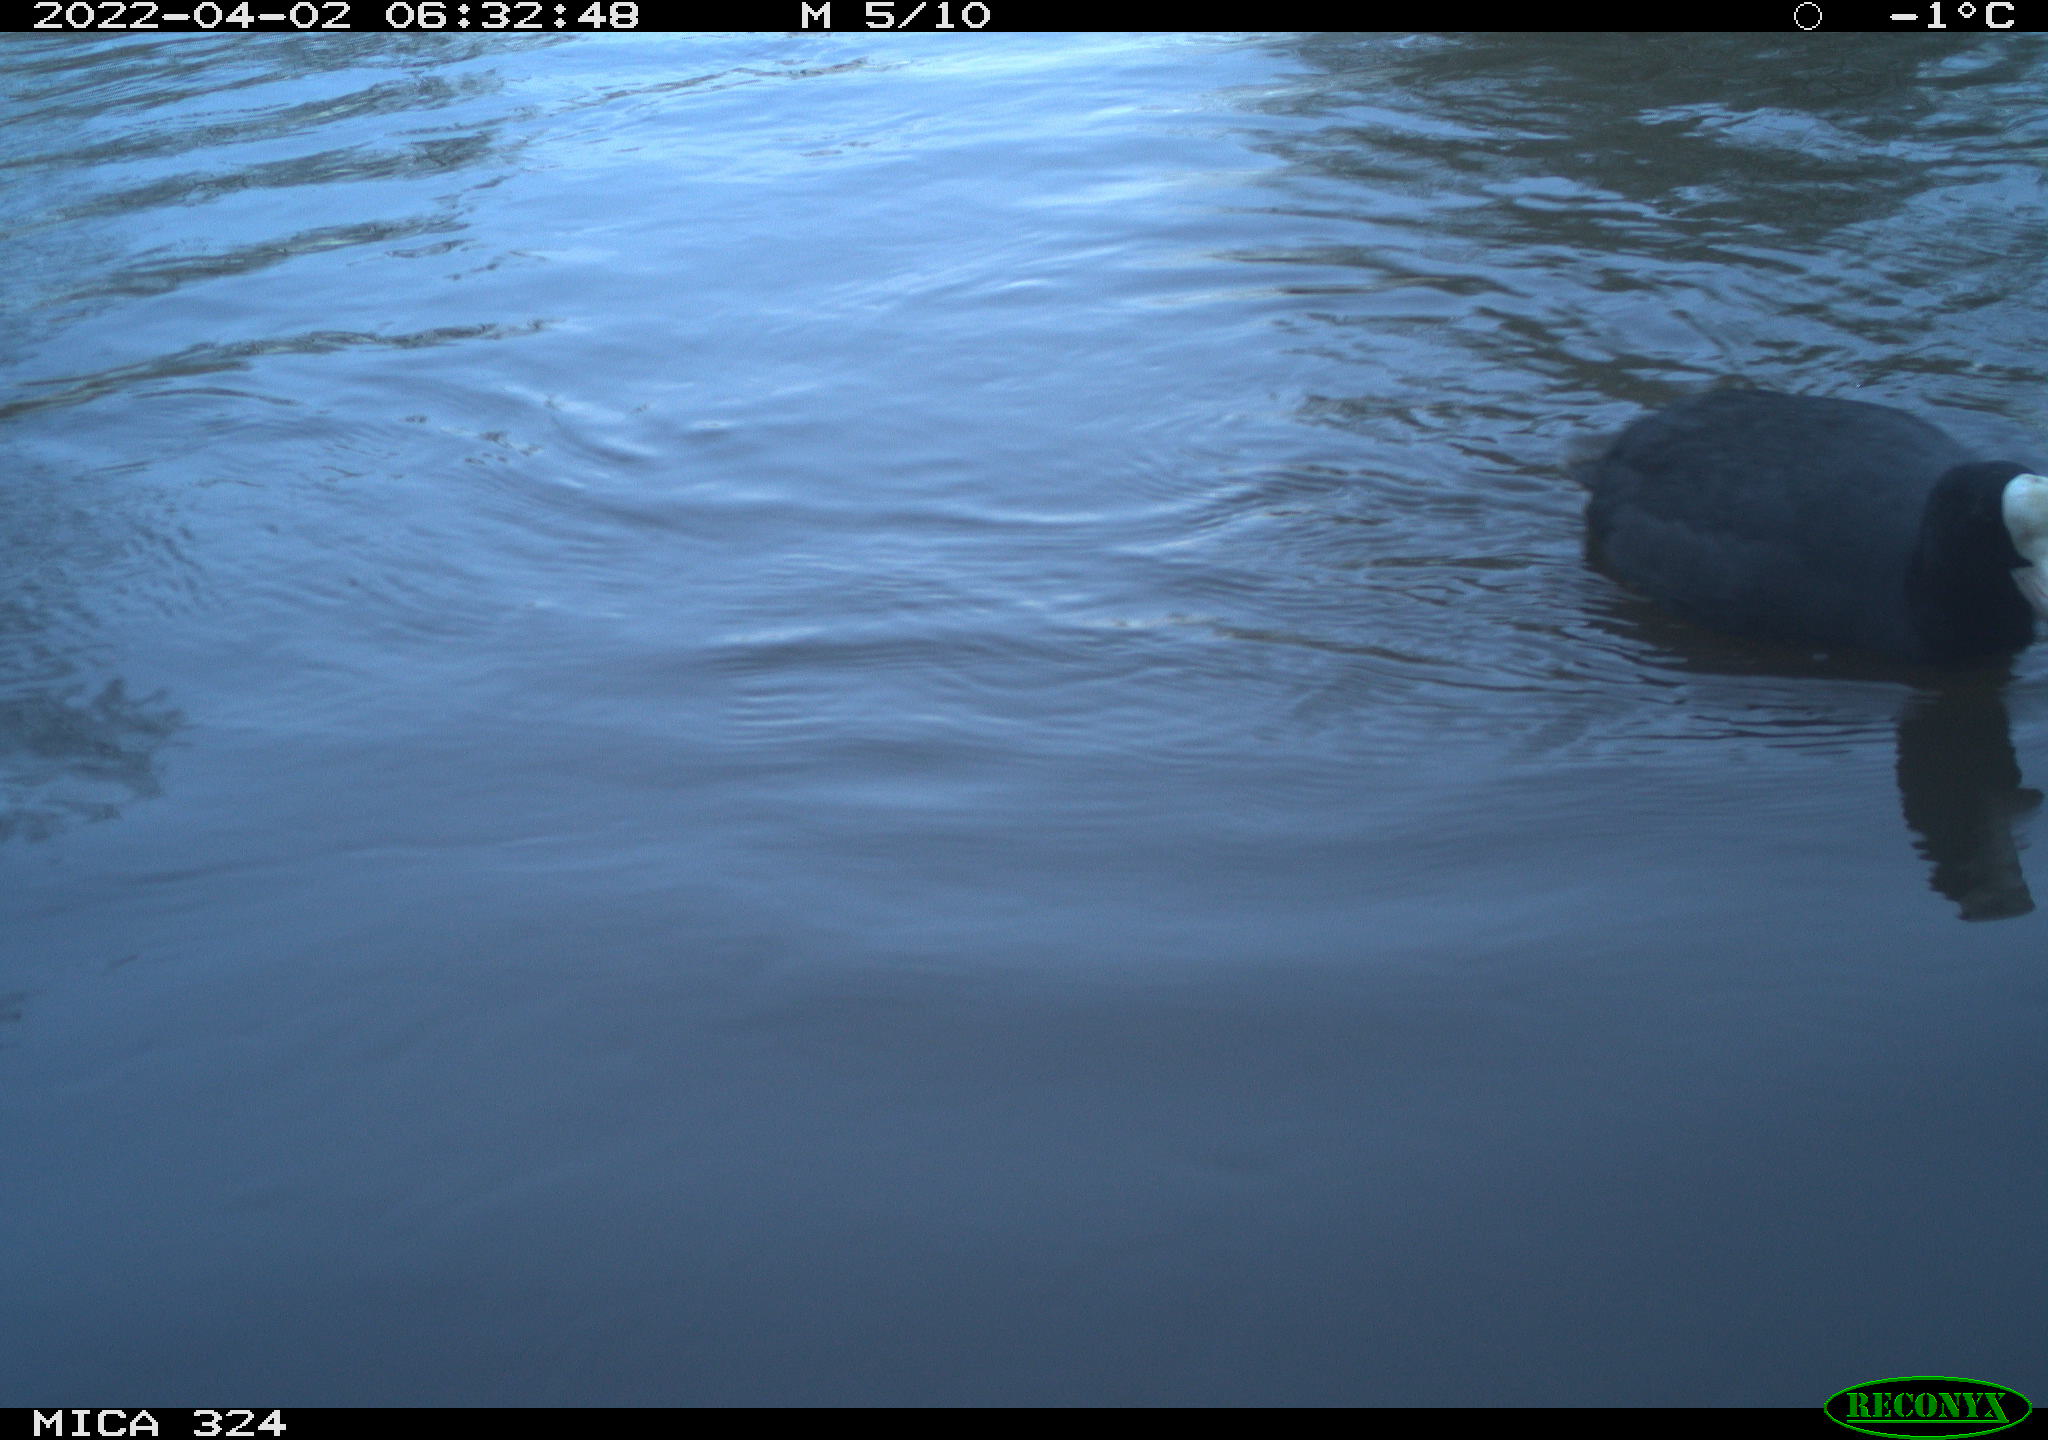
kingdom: Animalia
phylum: Chordata
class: Aves
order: Gruiformes
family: Rallidae
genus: Fulica
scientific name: Fulica atra
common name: Eurasian coot
